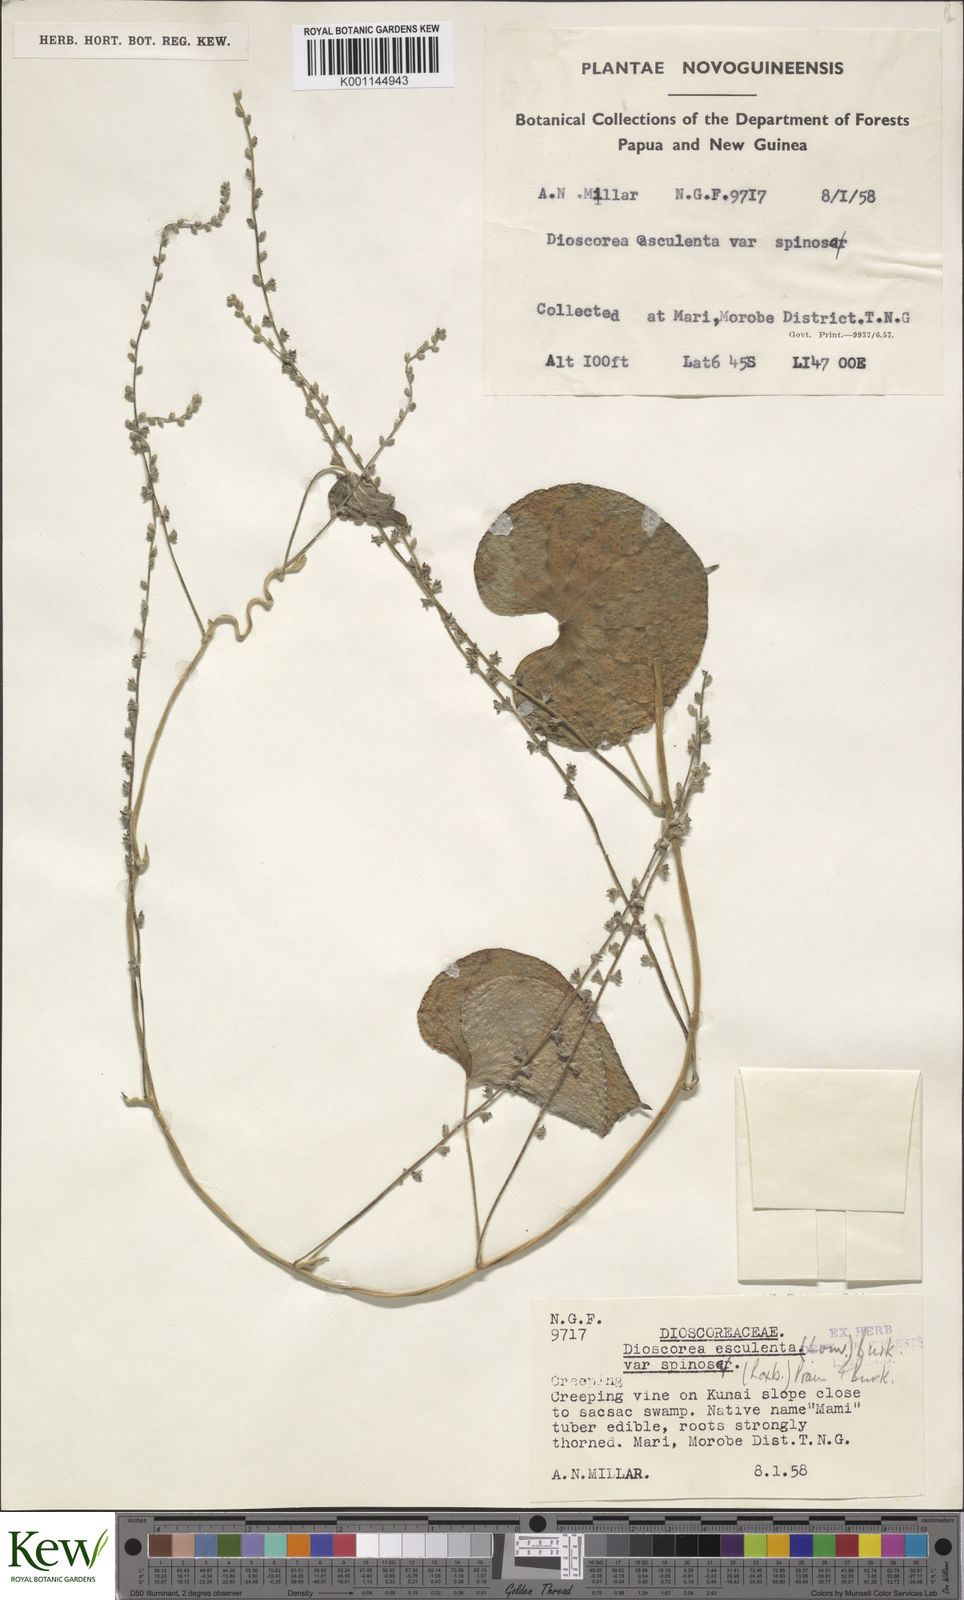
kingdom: Plantae
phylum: Tracheophyta
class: Liliopsida
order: Dioscoreales
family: Dioscoreaceae
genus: Dioscorea
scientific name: Dioscorea esculenta
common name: Chinese yam
